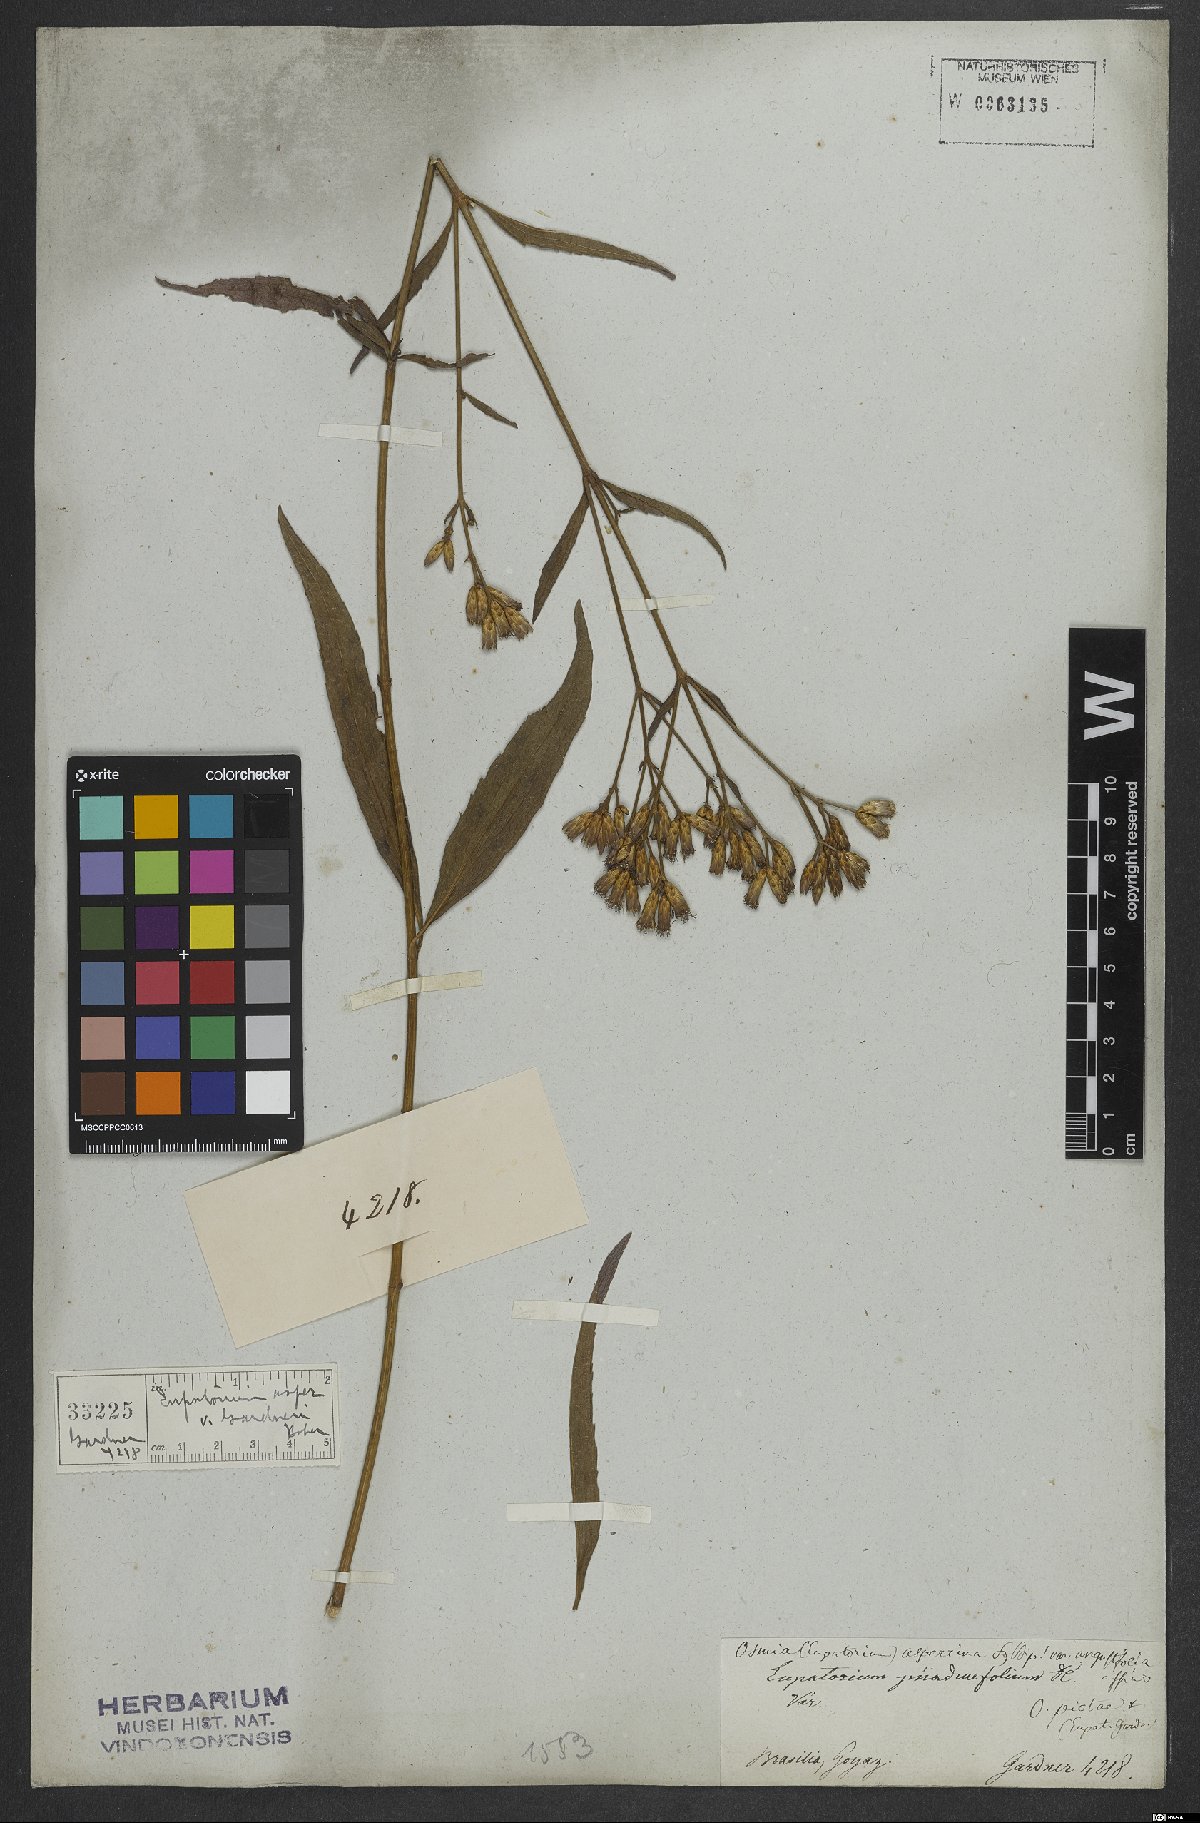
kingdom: Plantae
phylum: Tracheophyta
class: Magnoliopsida
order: Asterales
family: Asteraceae
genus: Chromolaena
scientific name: Chromolaena asperrima
